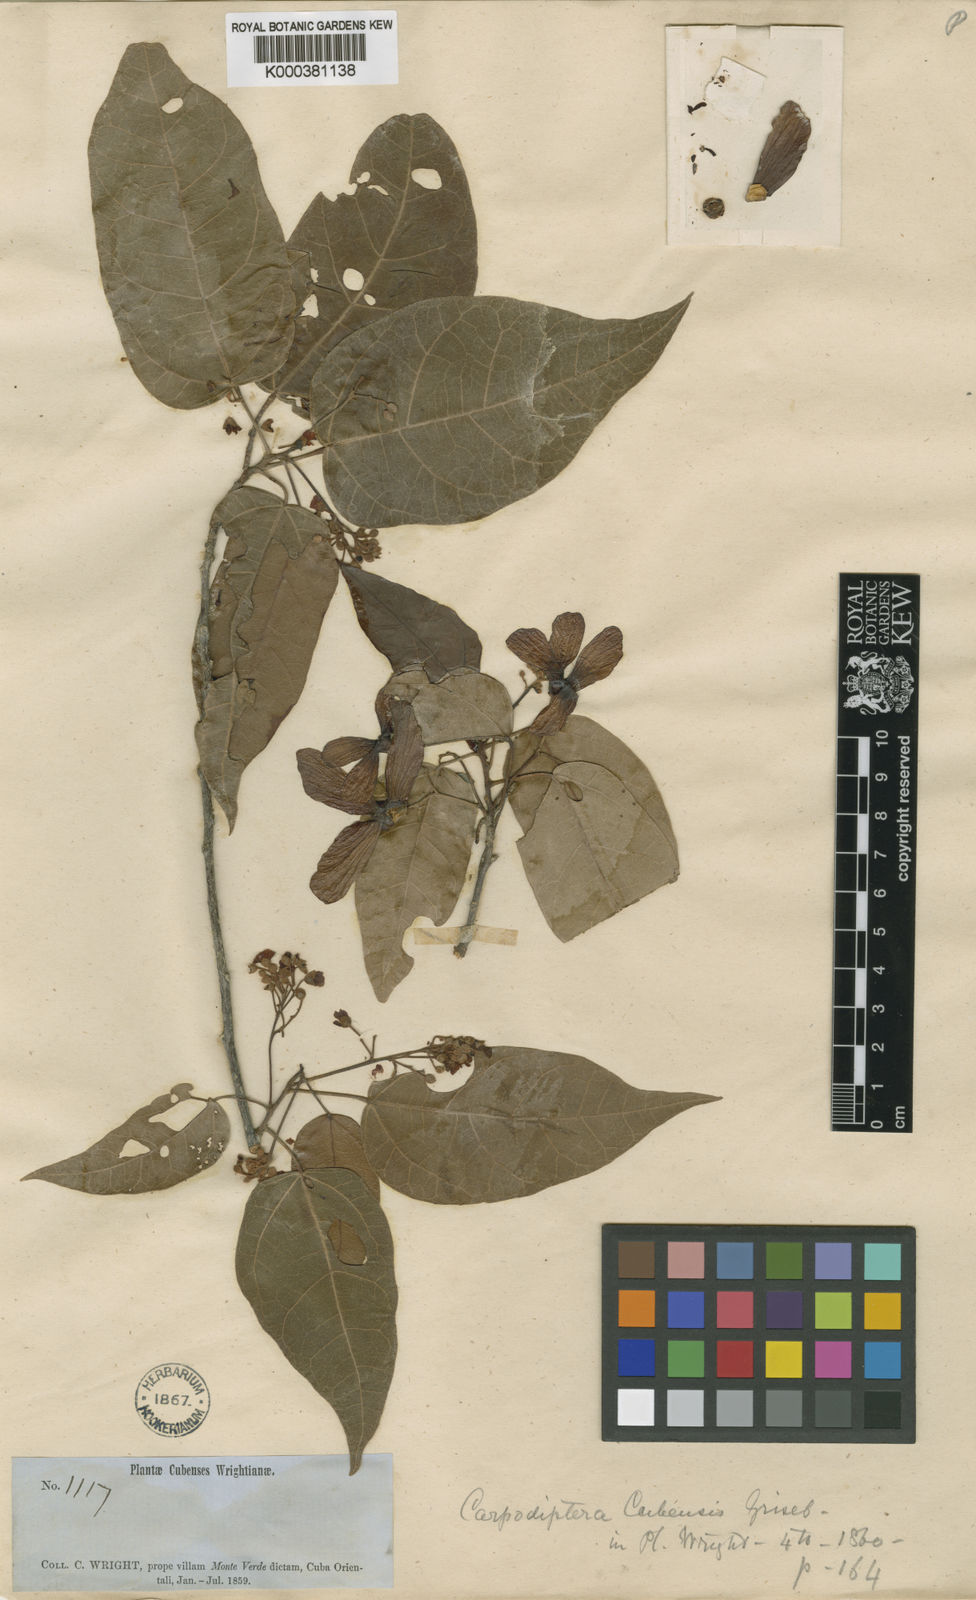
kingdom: Plantae
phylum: Tracheophyta
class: Magnoliopsida
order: Malvales
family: Malvaceae
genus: Berrya
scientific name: Berrya cubensis
